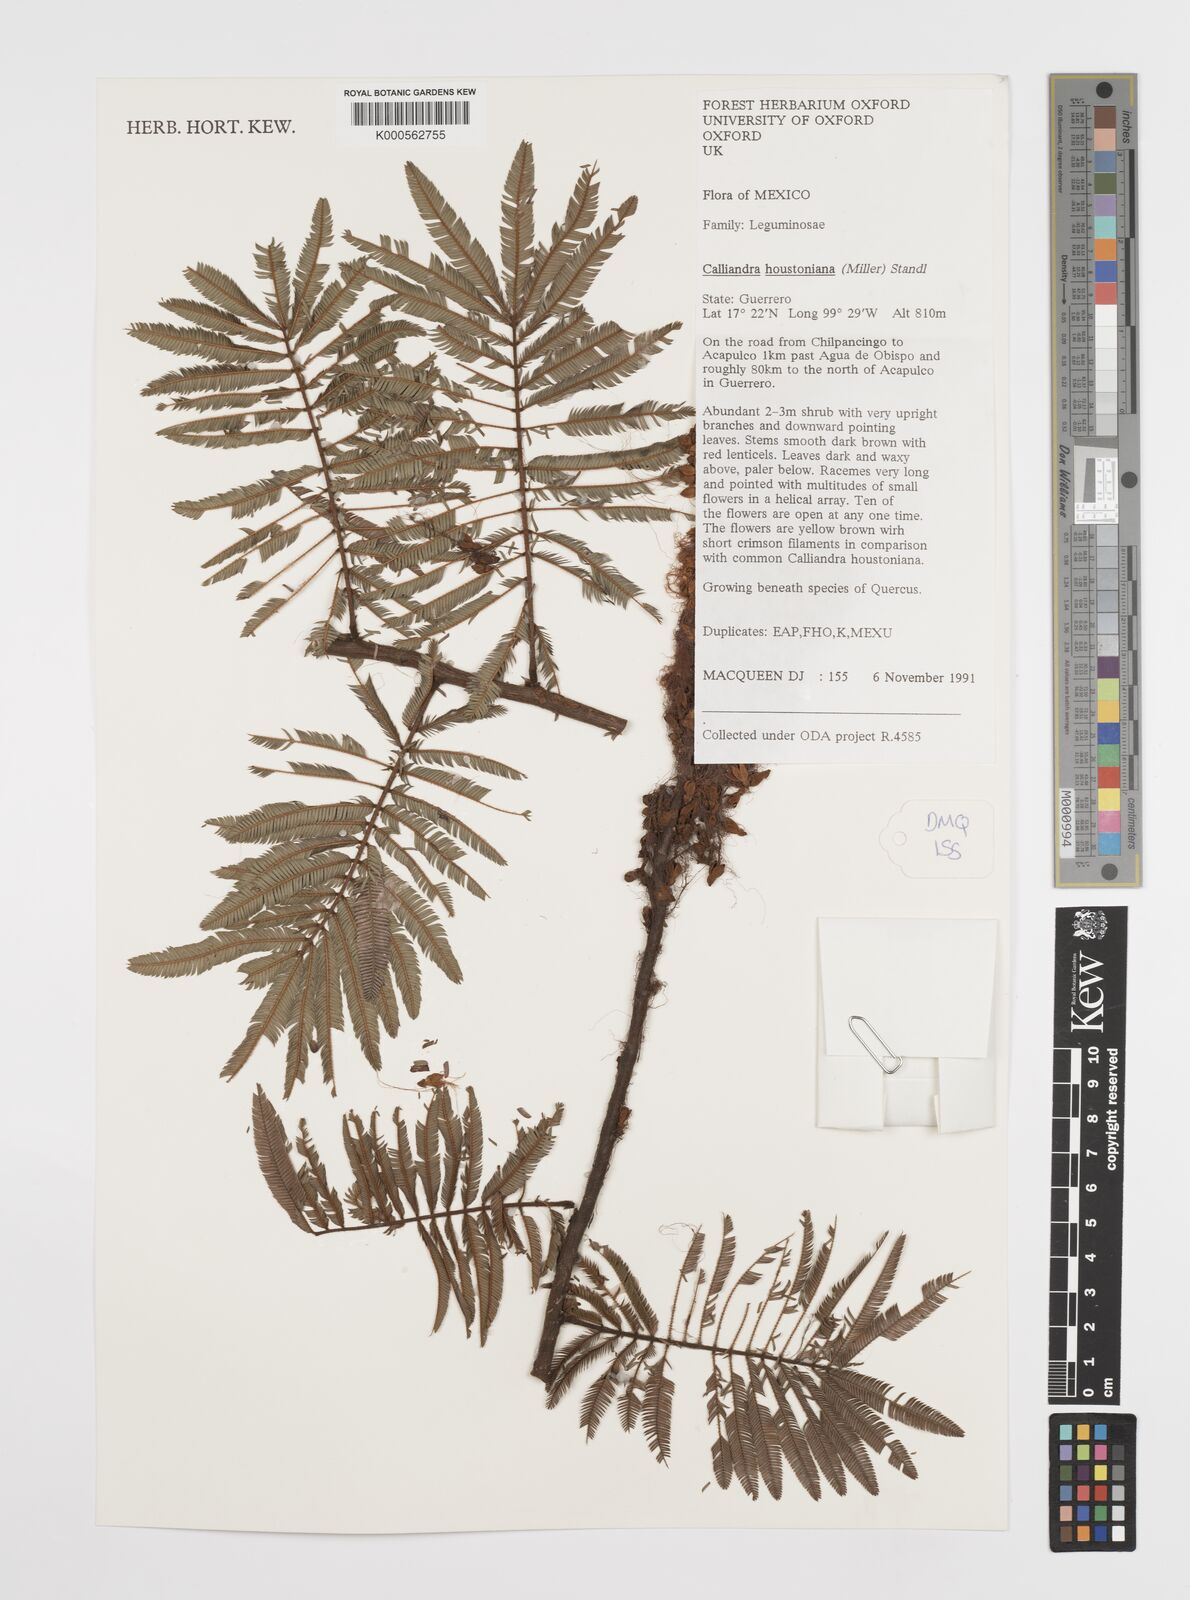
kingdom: Plantae
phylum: Tracheophyta
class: Magnoliopsida
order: Fabales
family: Fabaceae
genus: Calliandra
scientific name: Calliandra houstoniana
